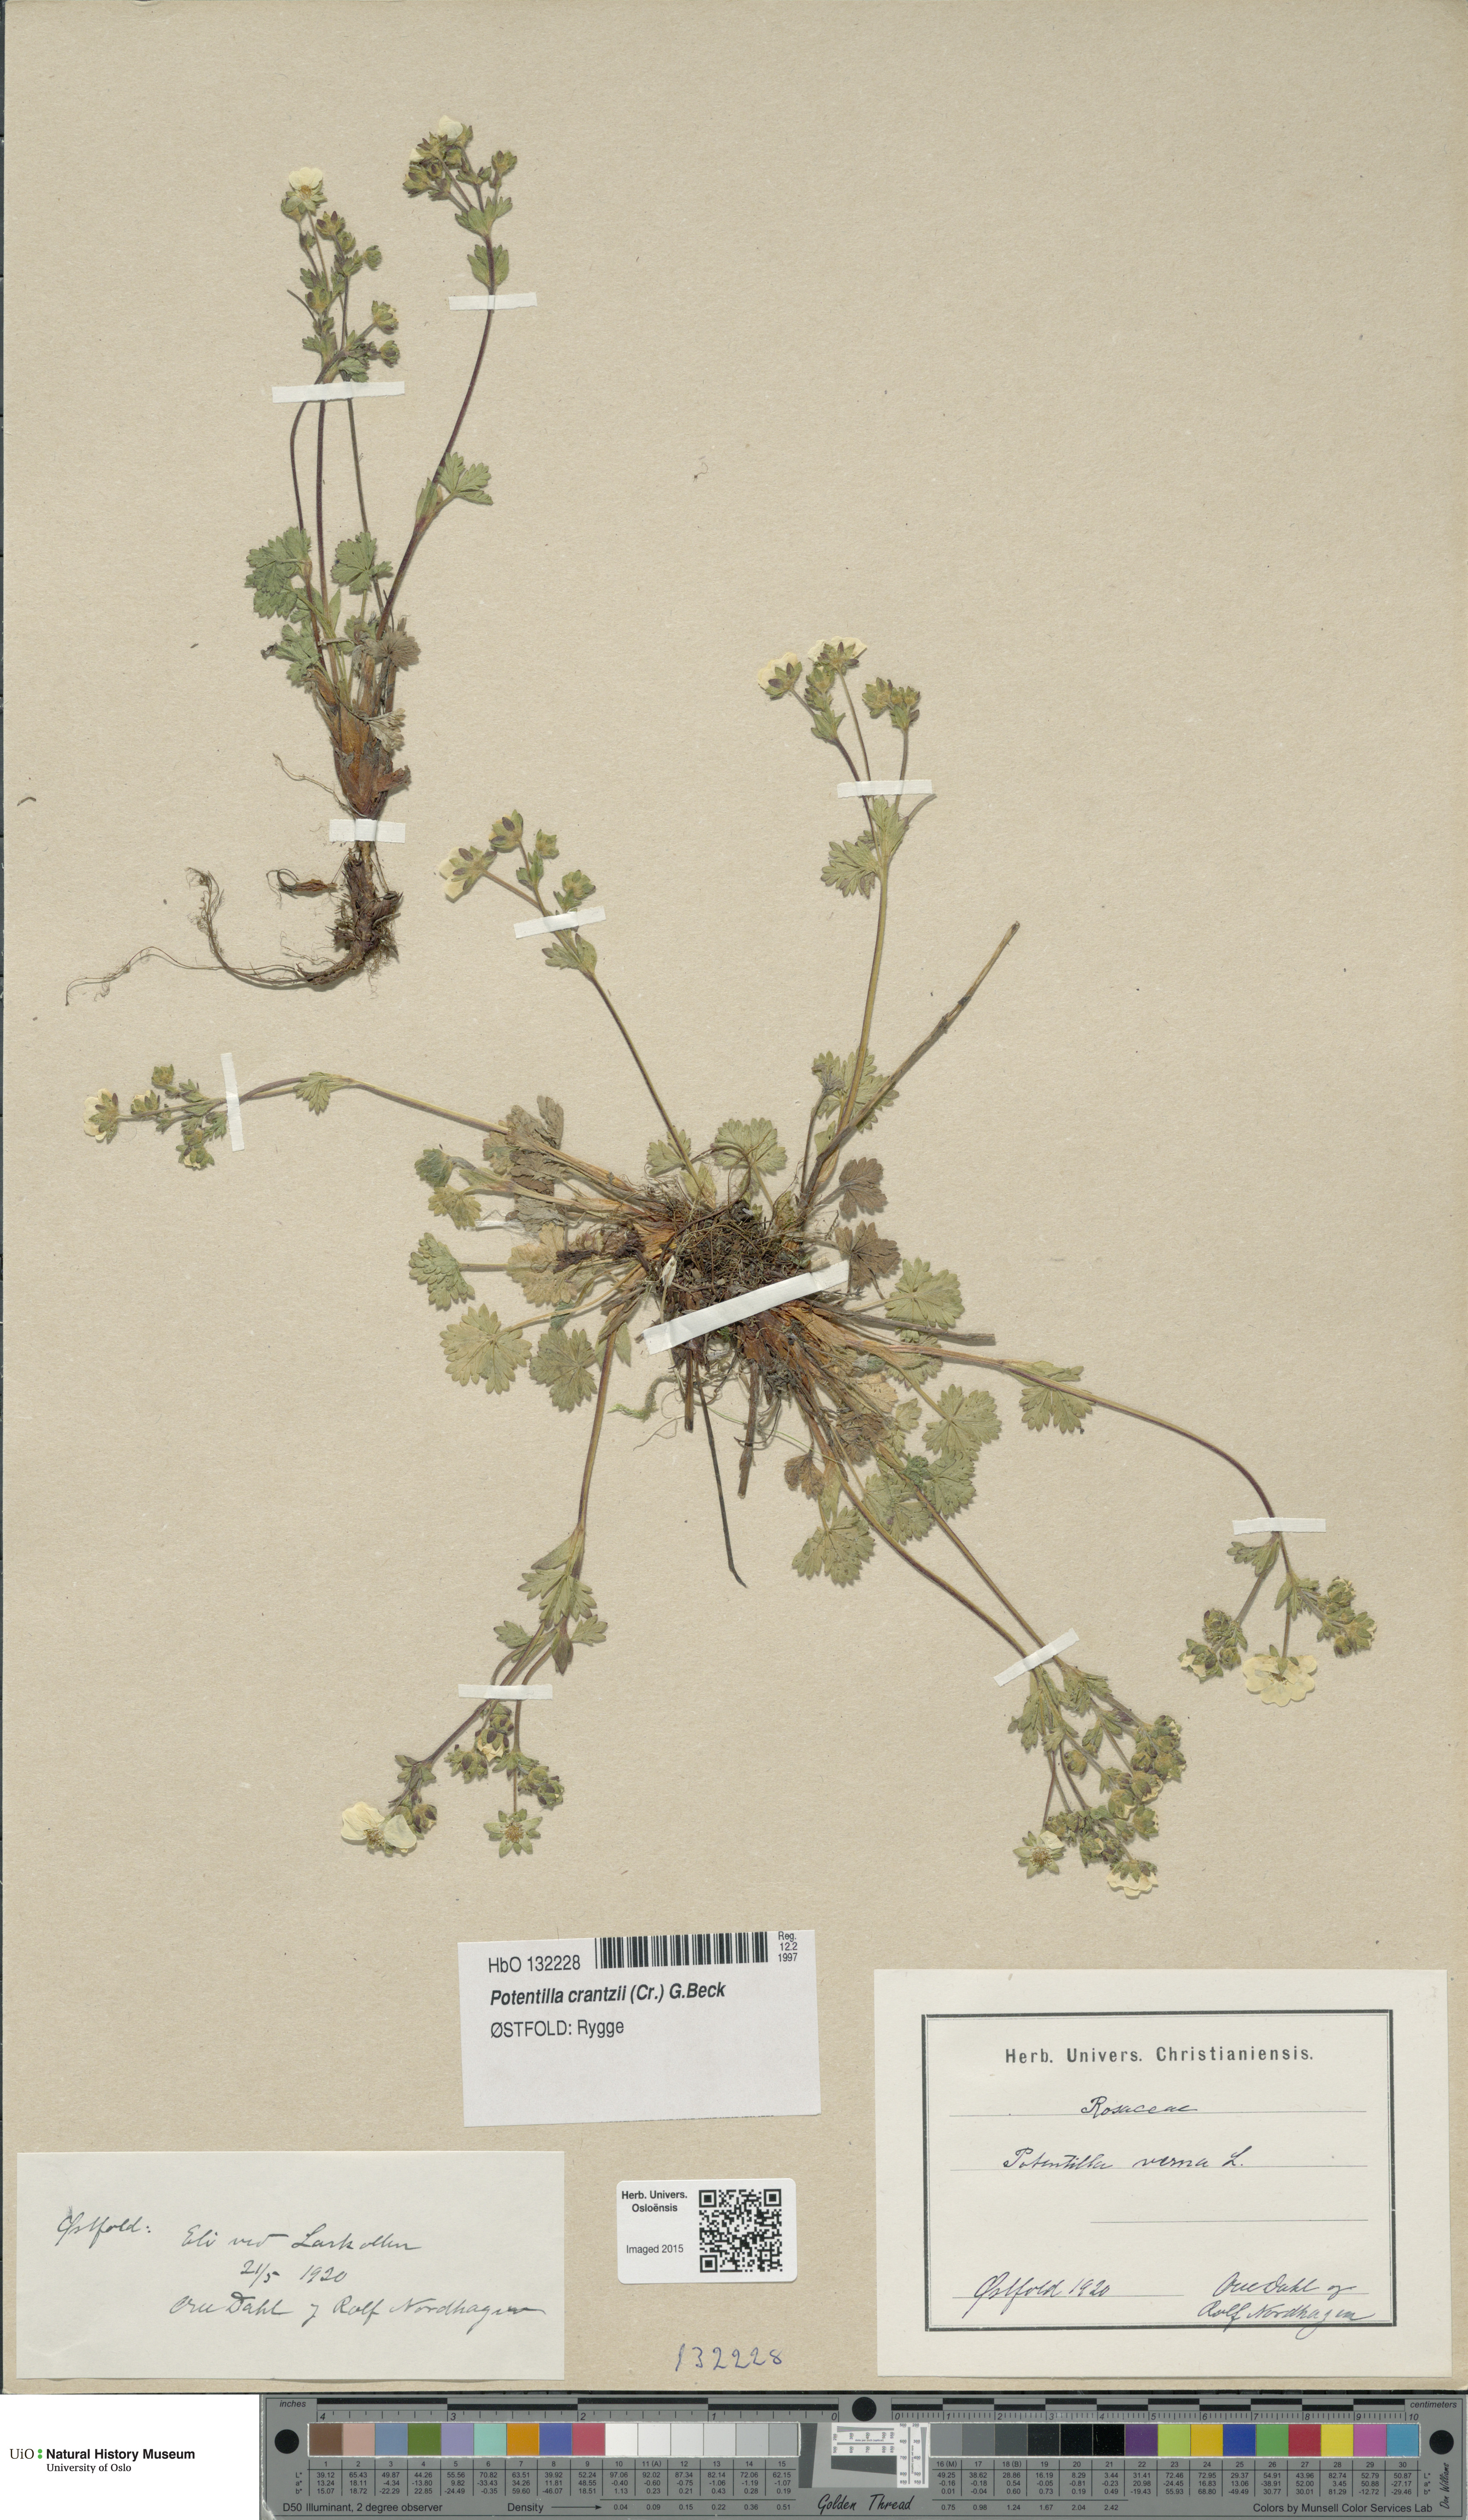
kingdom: Plantae
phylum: Tracheophyta
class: Magnoliopsida
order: Rosales
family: Rosaceae
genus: Potentilla
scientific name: Potentilla crantzii
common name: Alpine cinquefoil
